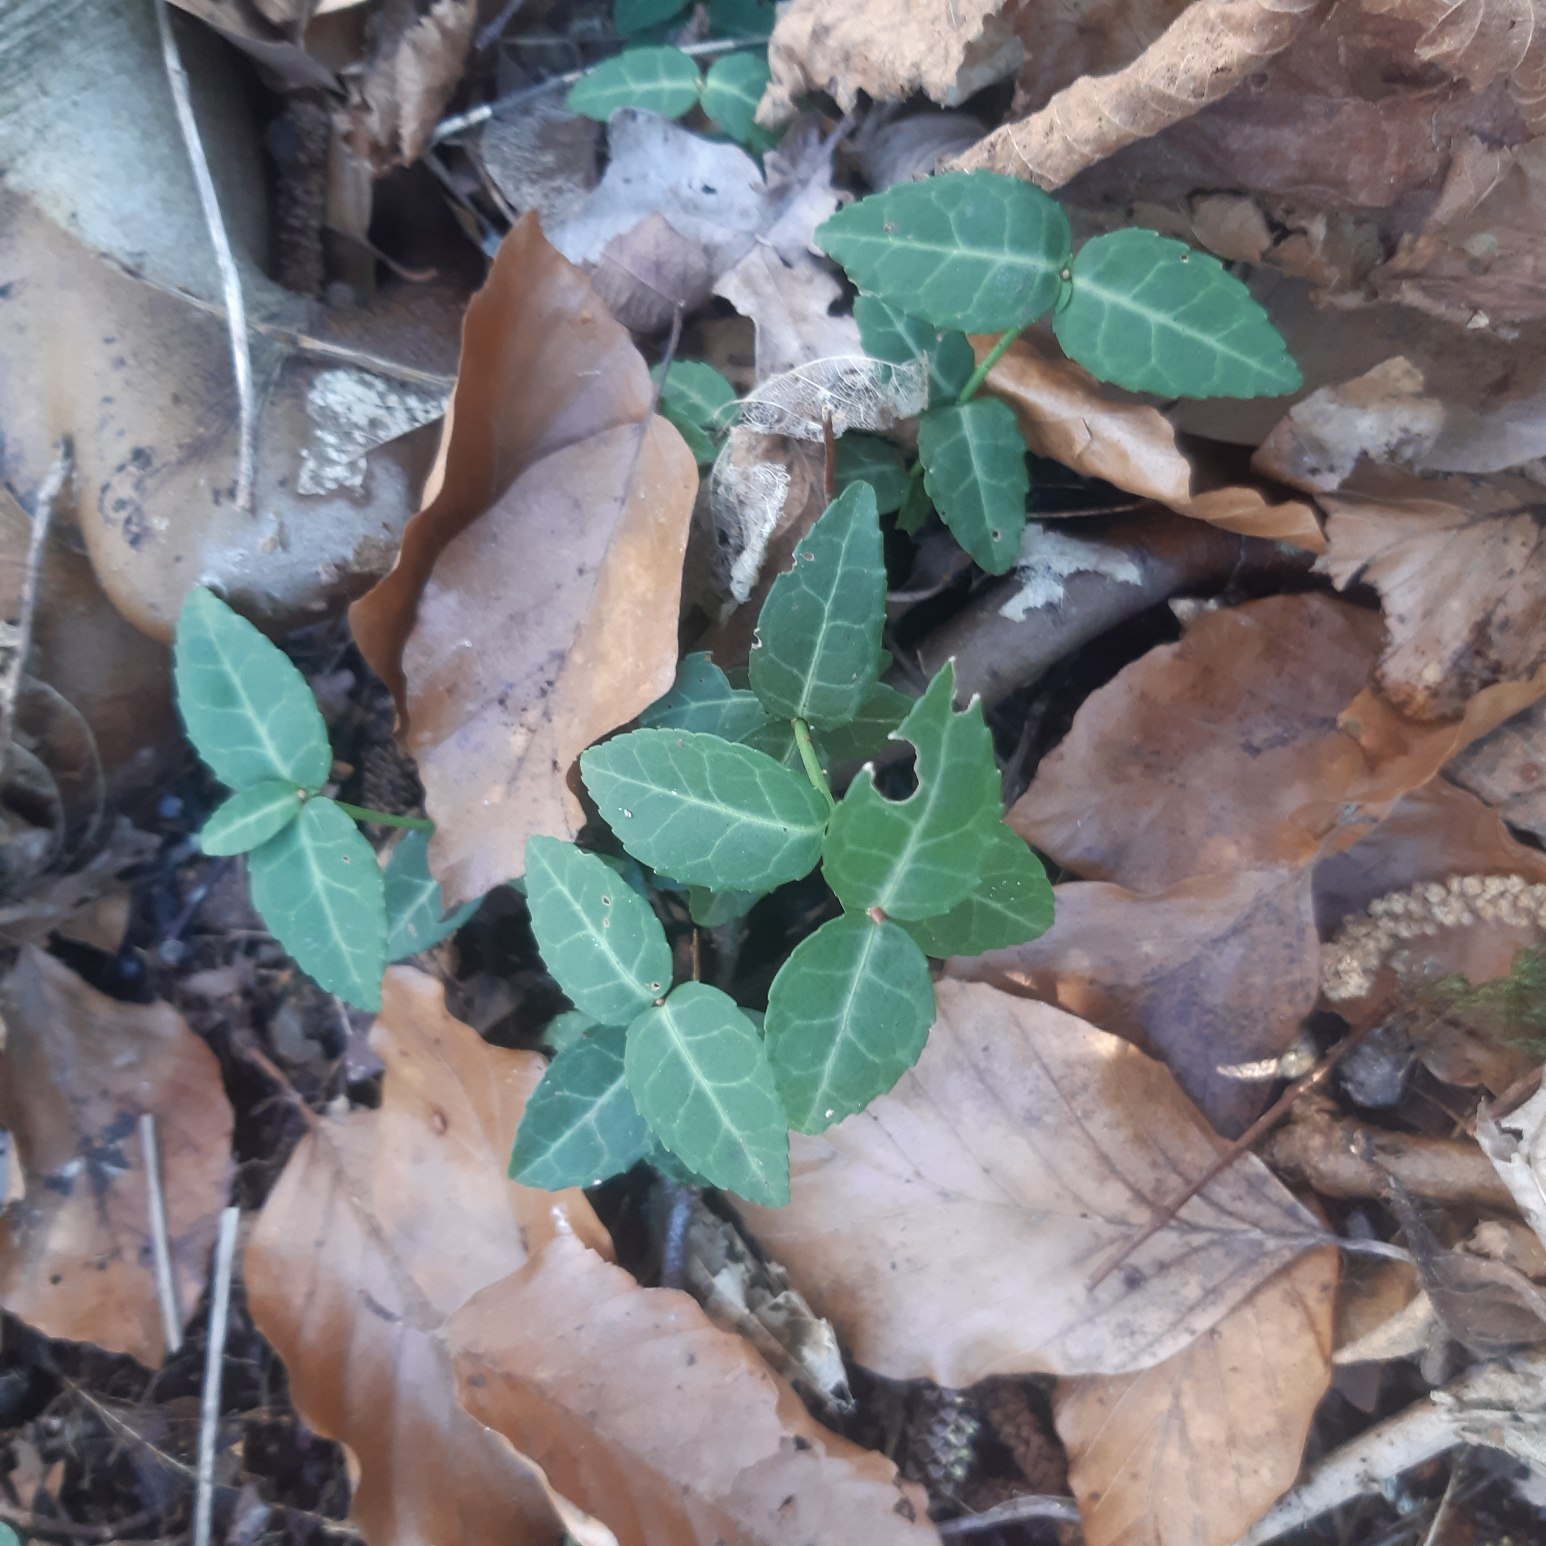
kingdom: Plantae
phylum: Tracheophyta
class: Magnoliopsida
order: Celastrales
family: Celastraceae
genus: Euonymus
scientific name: Euonymus fortunei
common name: Krybende benved
